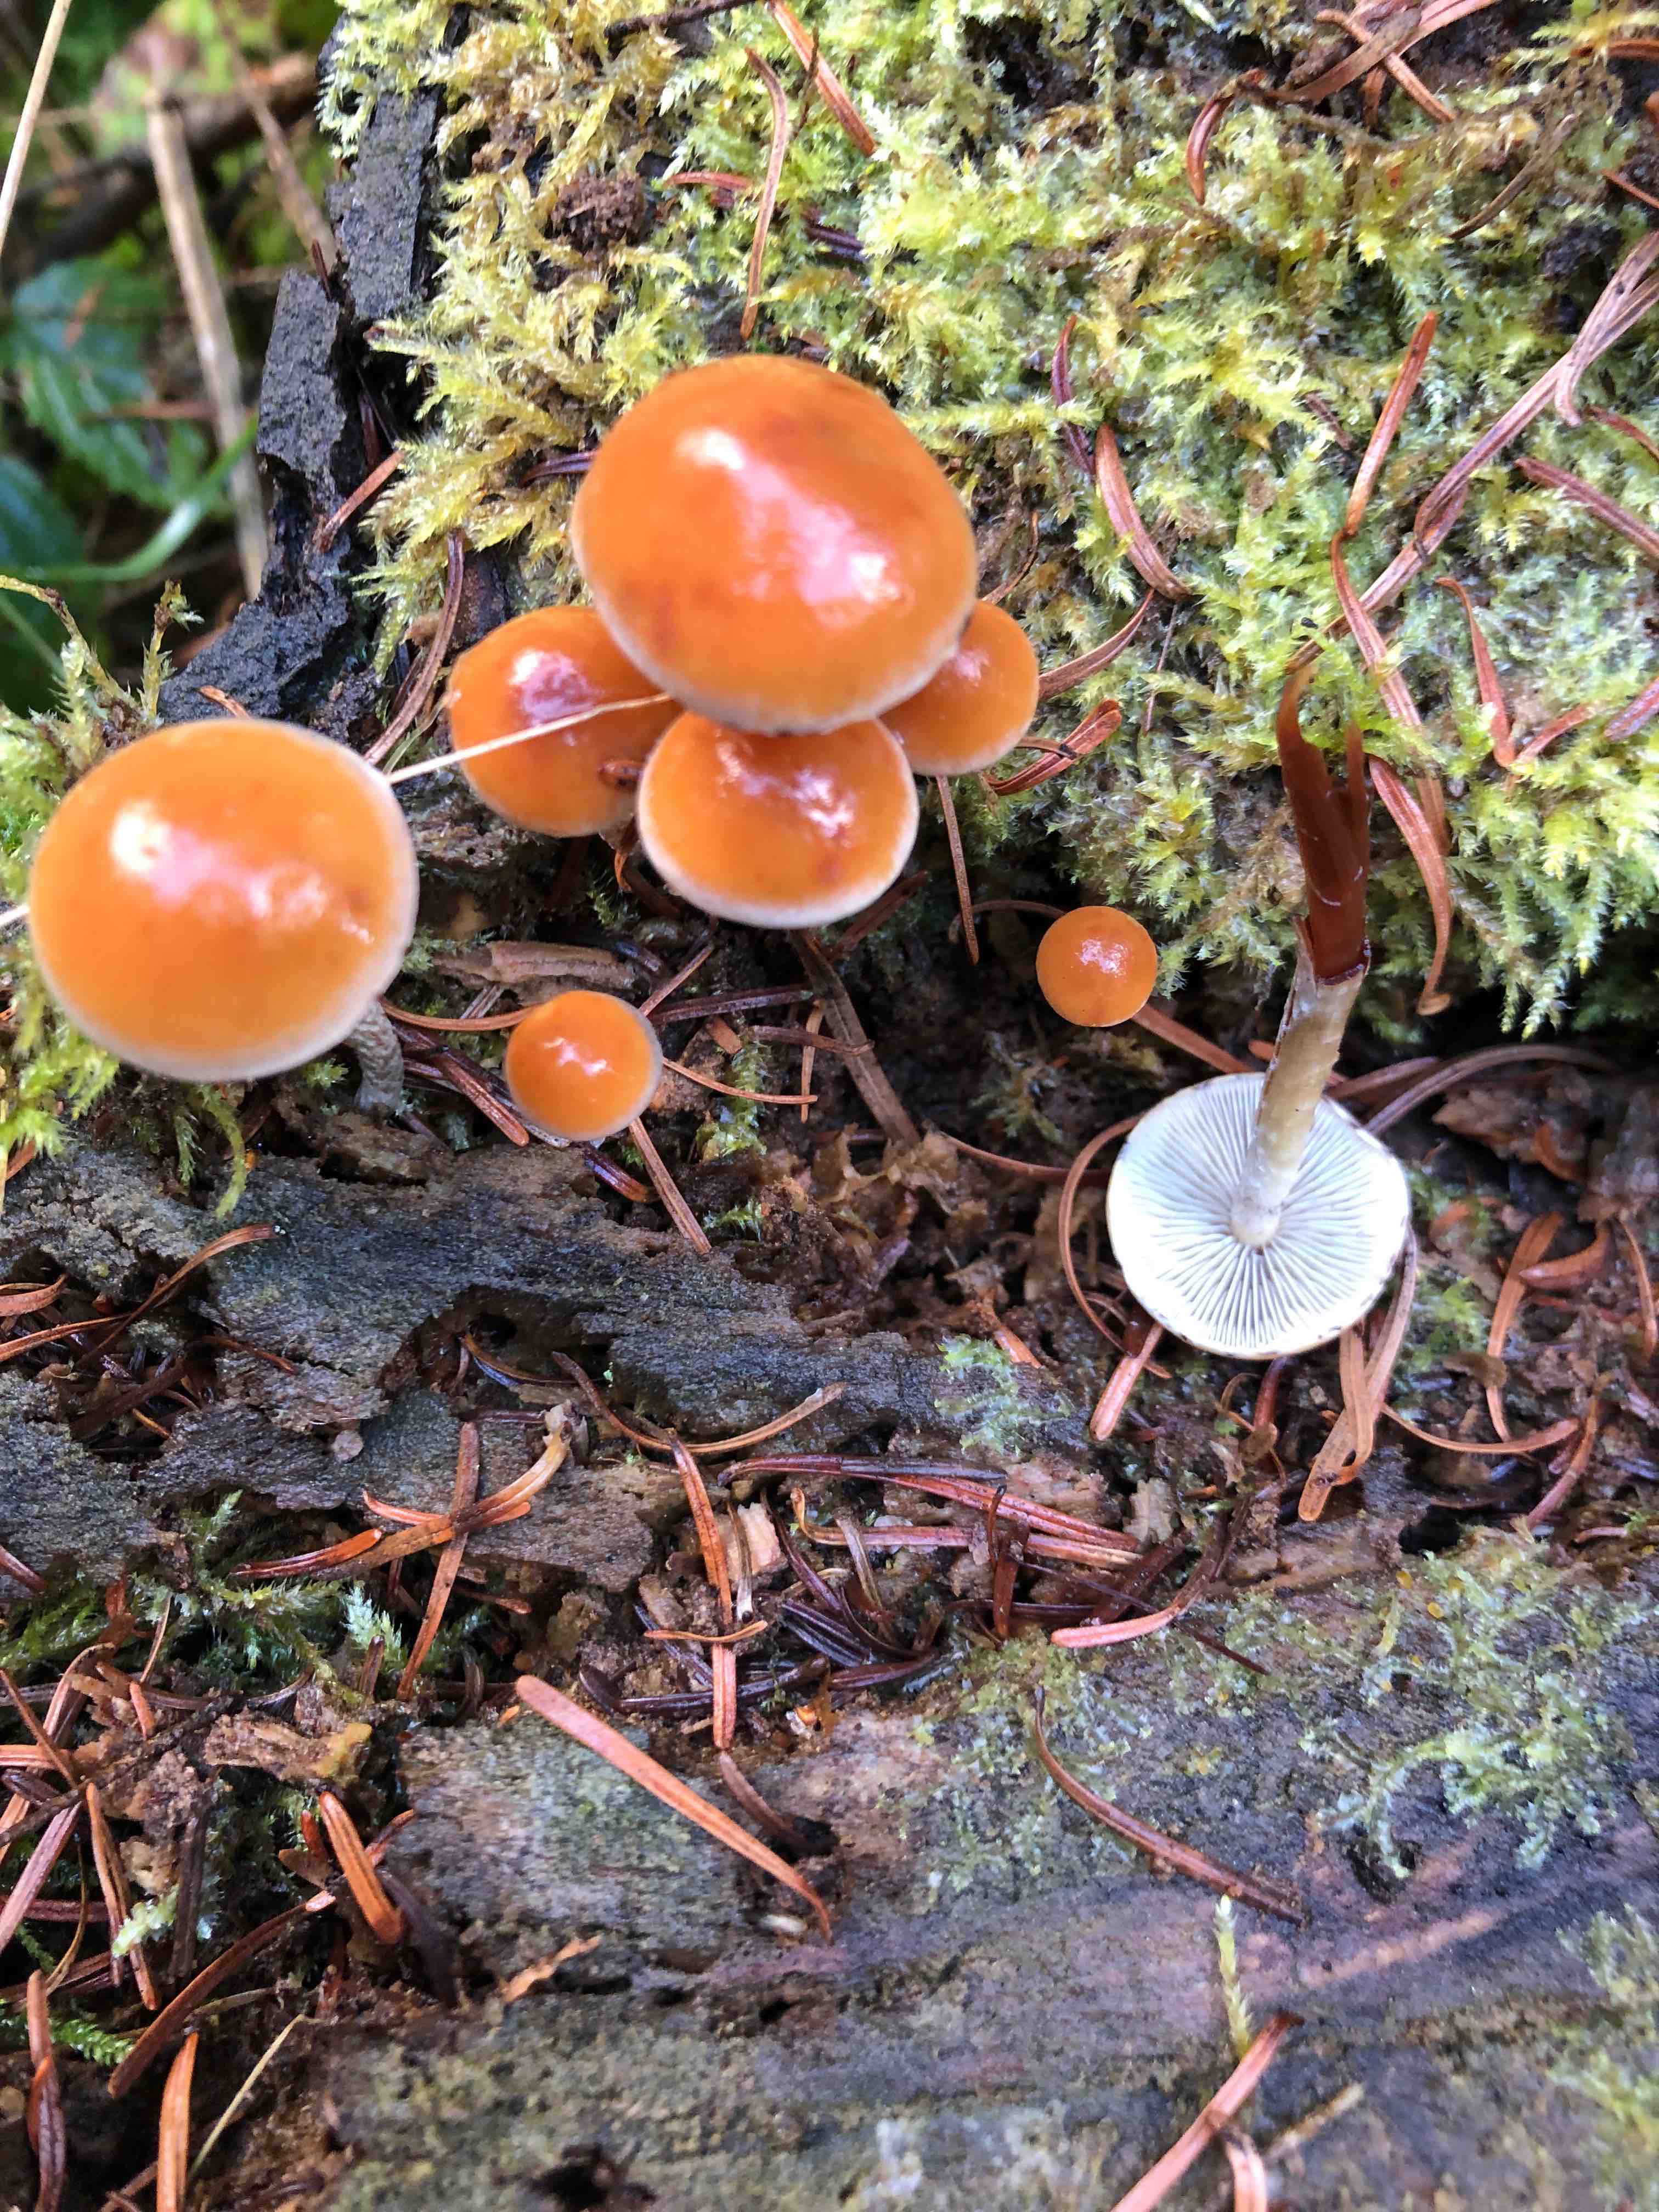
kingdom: Fungi
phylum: Basidiomycota
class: Agaricomycetes
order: Agaricales
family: Strophariaceae
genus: Hypholoma
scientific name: Hypholoma marginatum
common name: enlig svovlhat
